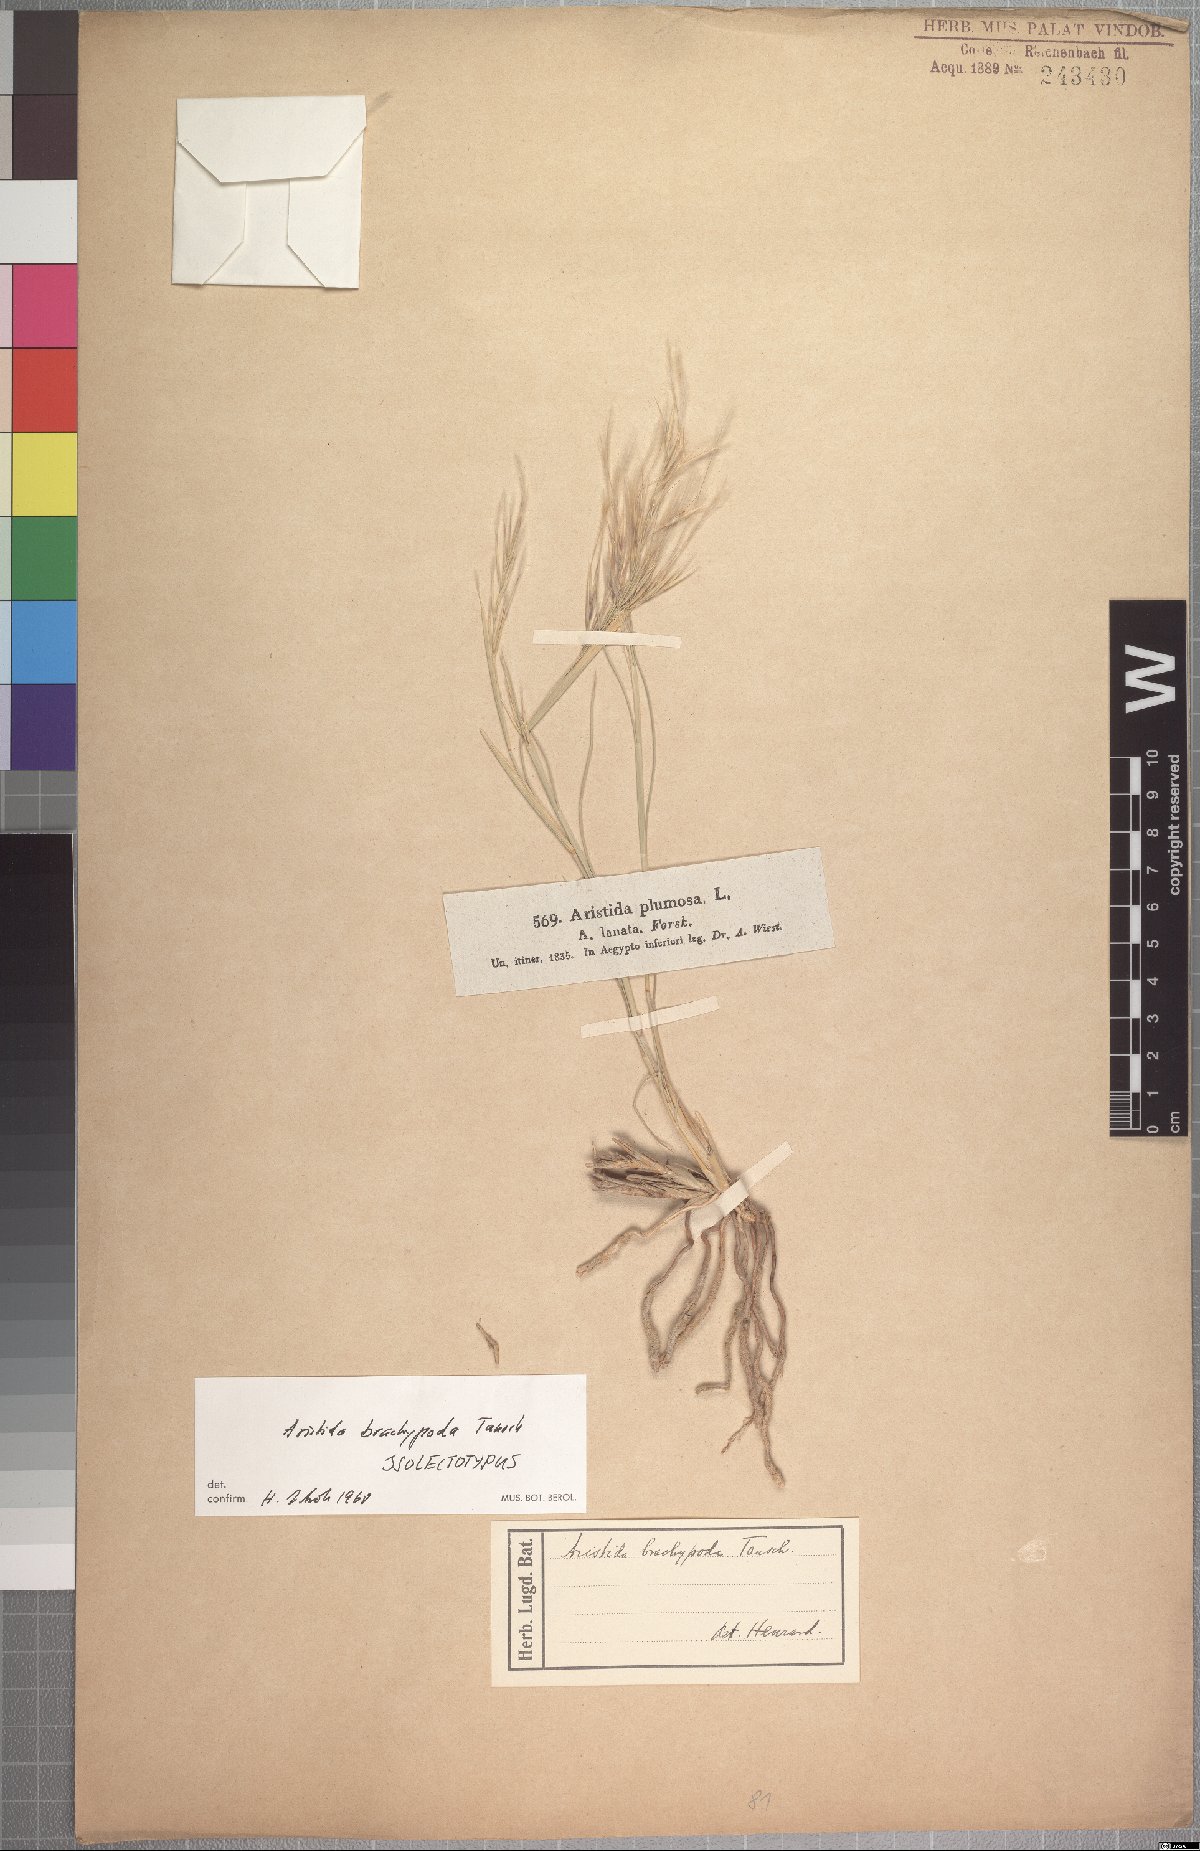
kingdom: Plantae
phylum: Tracheophyta
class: Liliopsida
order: Poales
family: Poaceae
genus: Stipagrostis
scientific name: Stipagrostis plumosa
